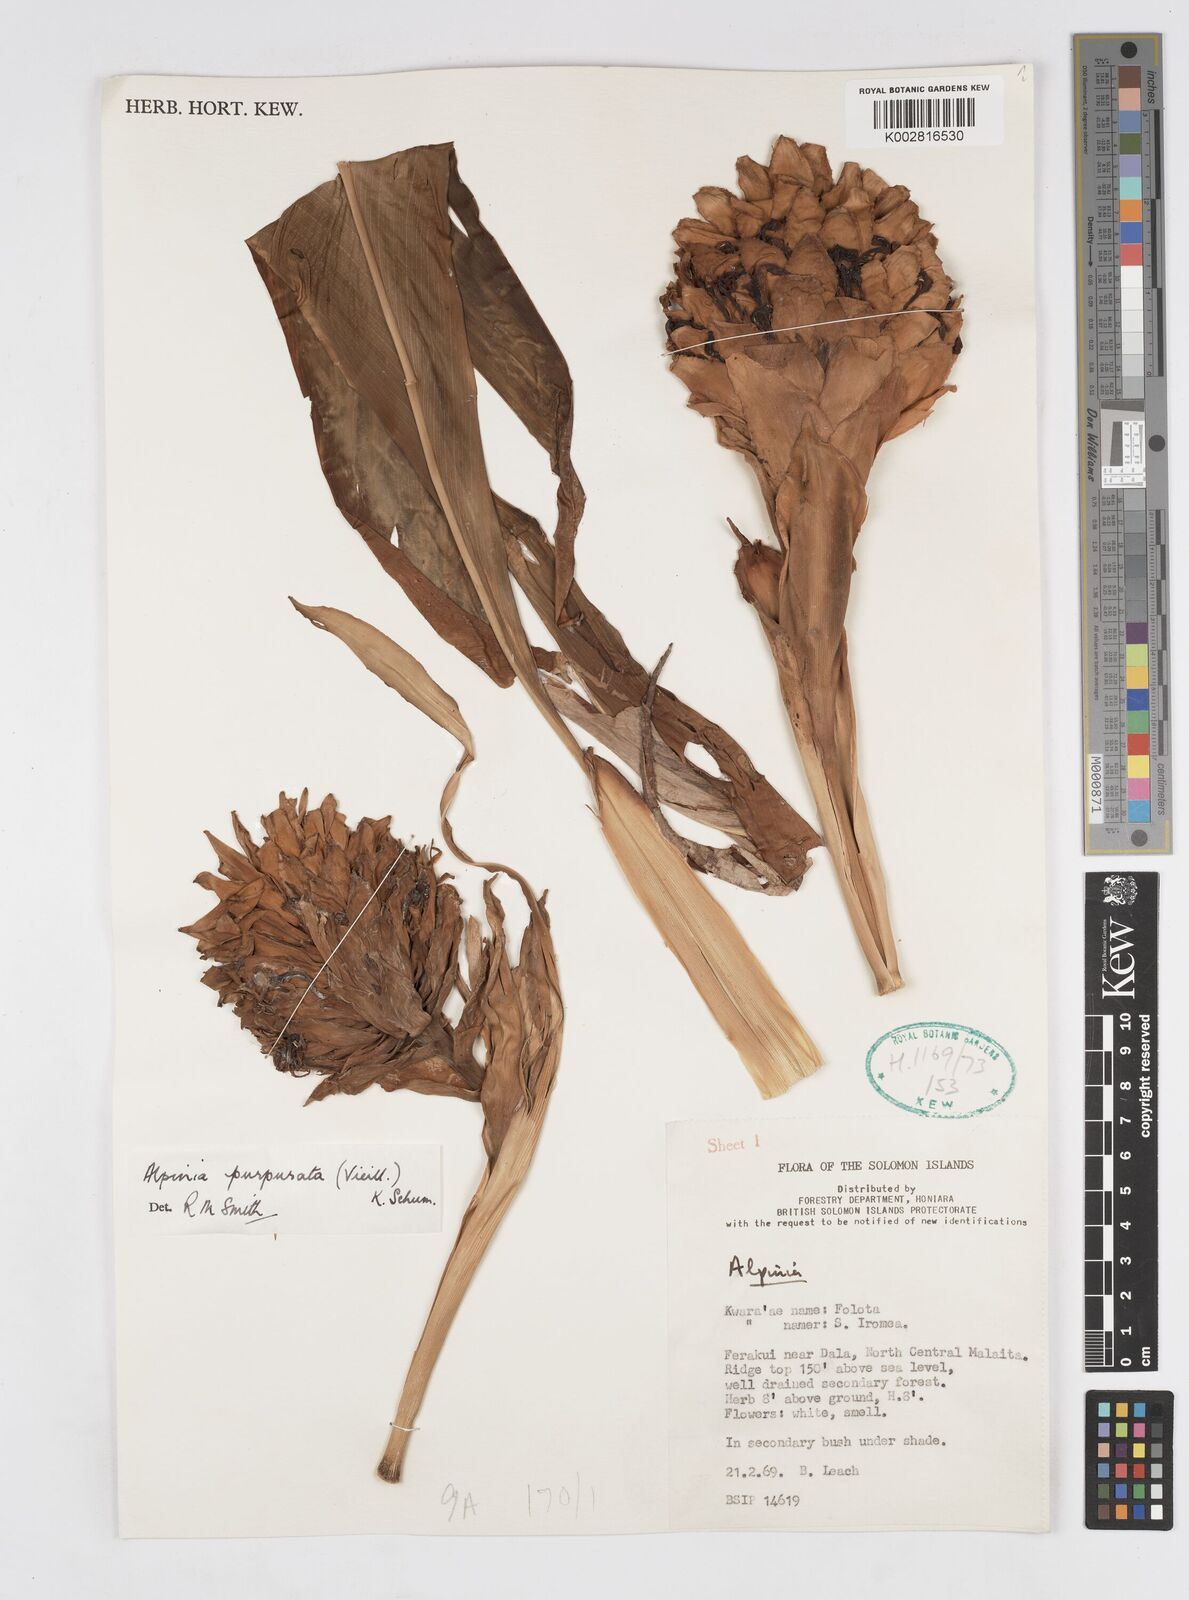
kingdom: Plantae
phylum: Tracheophyta
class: Liliopsida
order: Zingiberales
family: Zingiberaceae
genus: Alpinia
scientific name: Alpinia purpurata
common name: Red ginger
